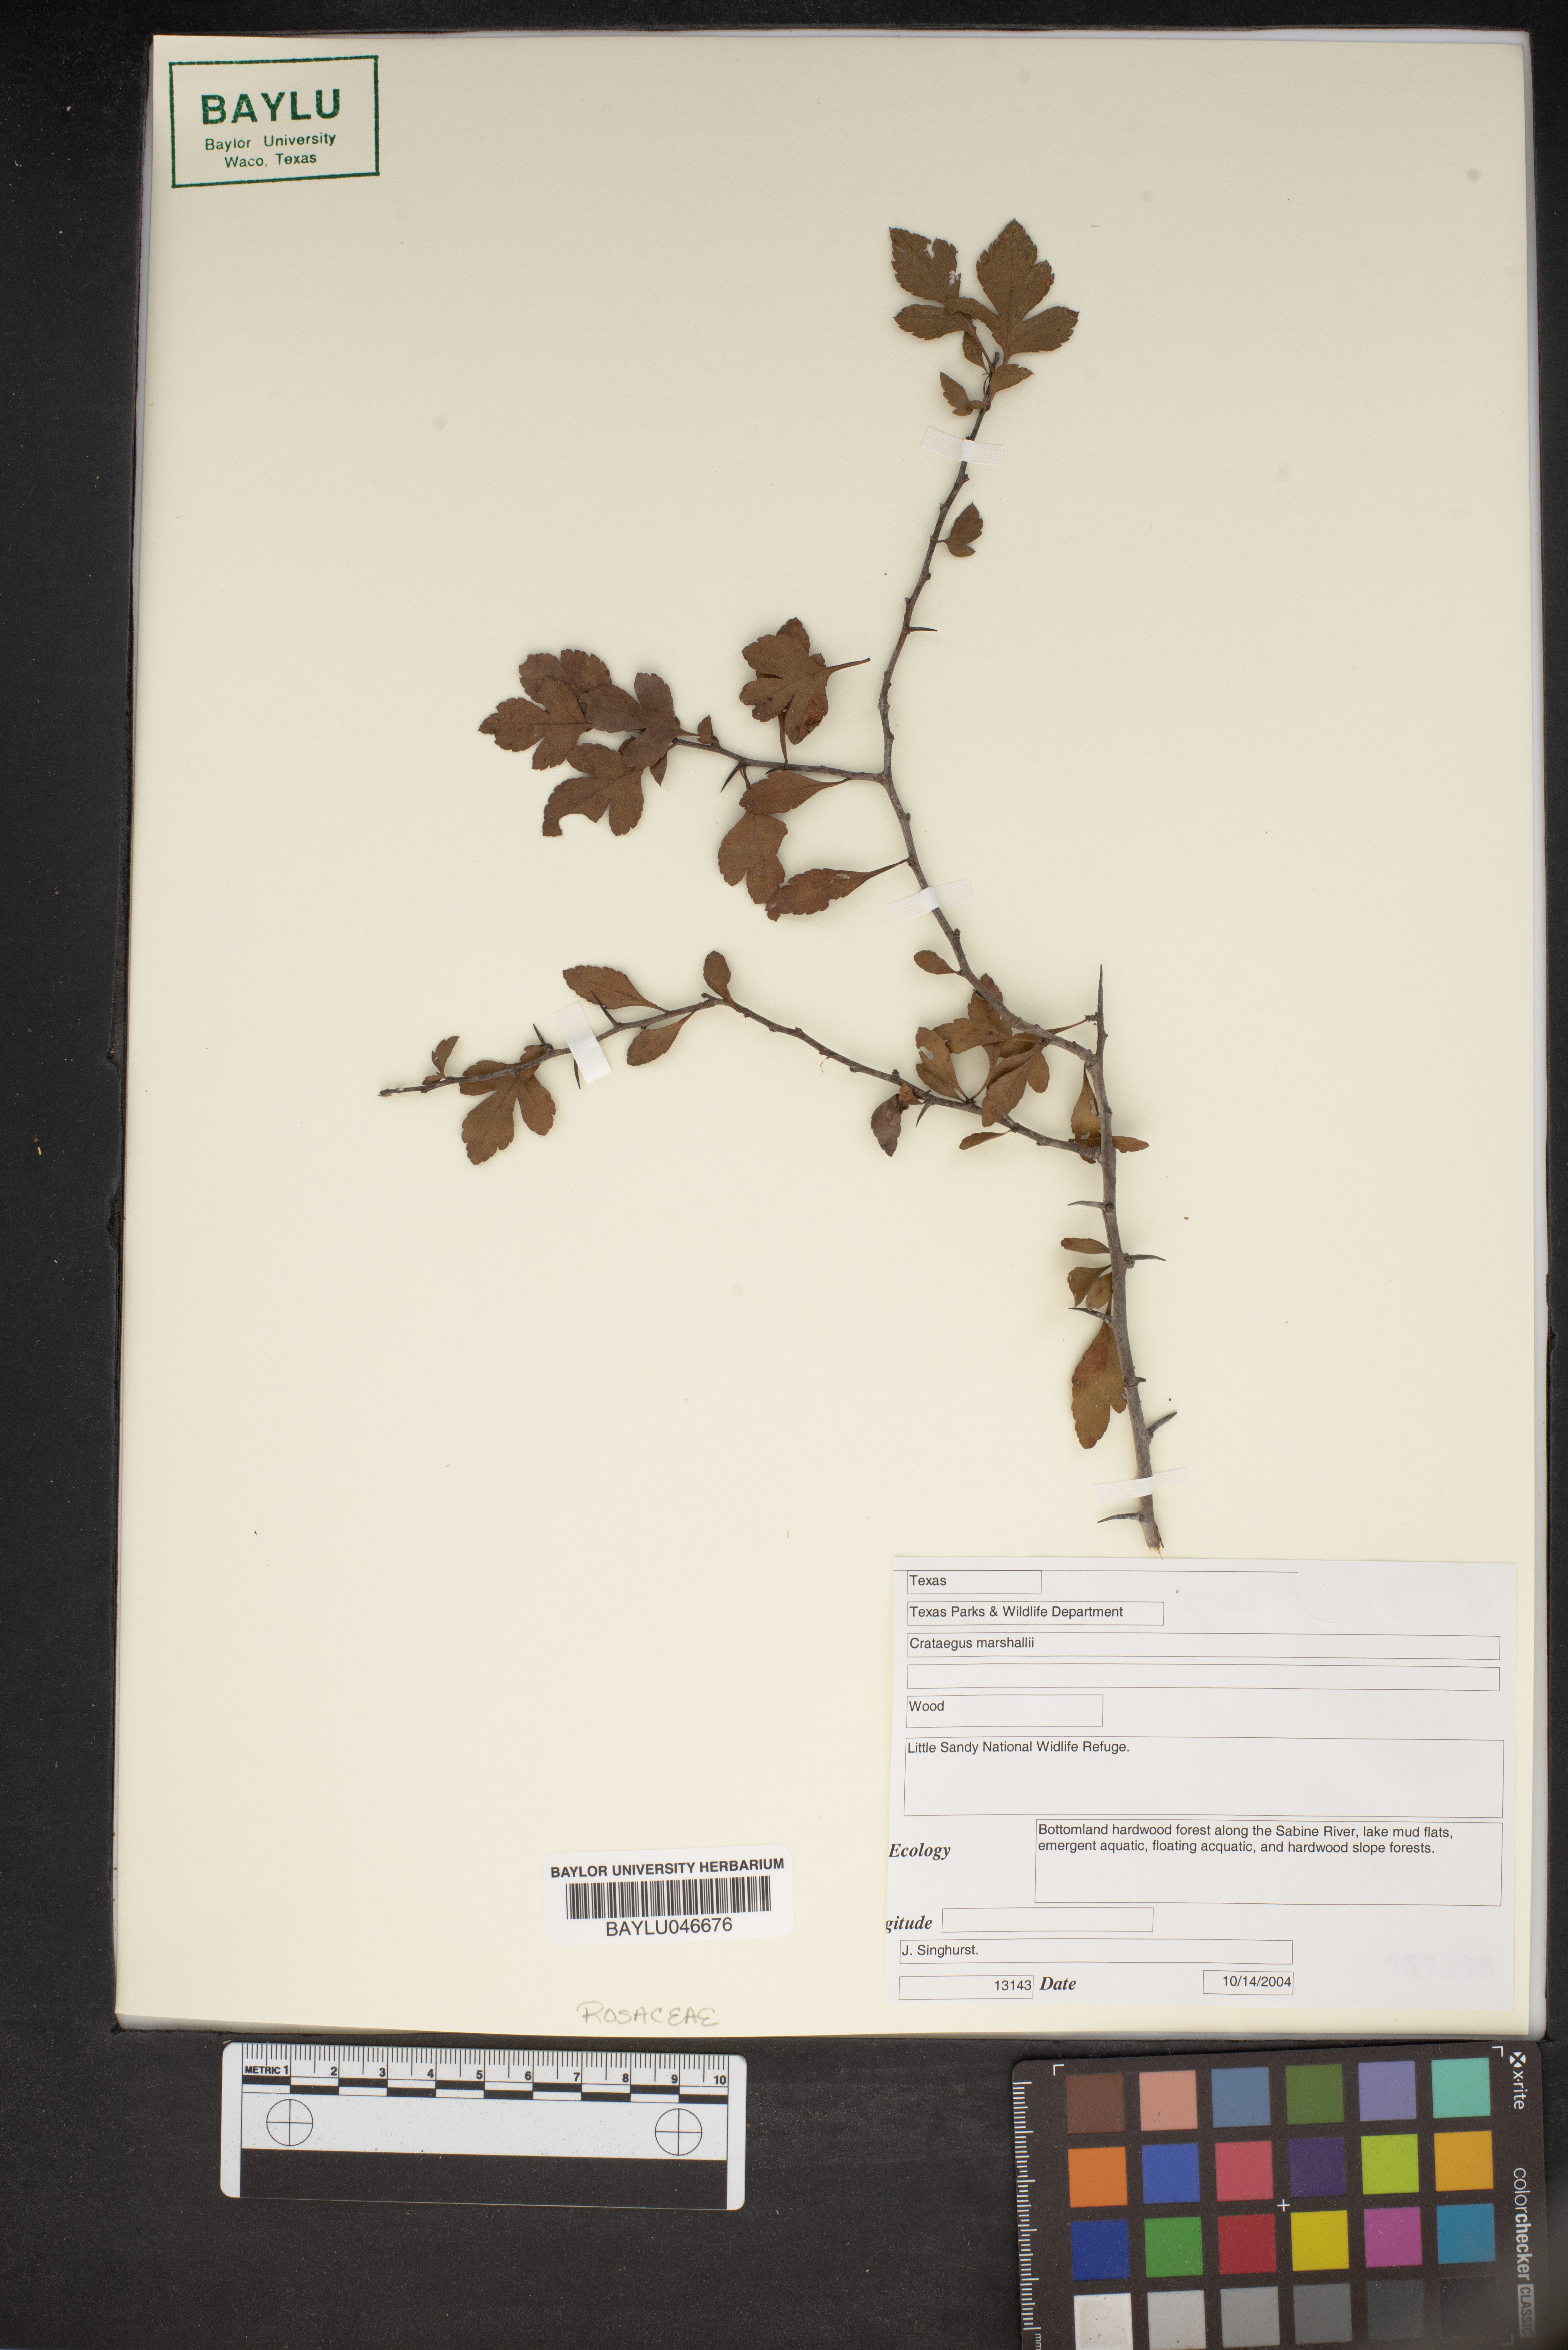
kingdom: Plantae
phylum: Tracheophyta
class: Magnoliopsida
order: Rosales
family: Rosaceae
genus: Crataegus
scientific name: Crataegus marshallii
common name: Parsley-hawthorn
